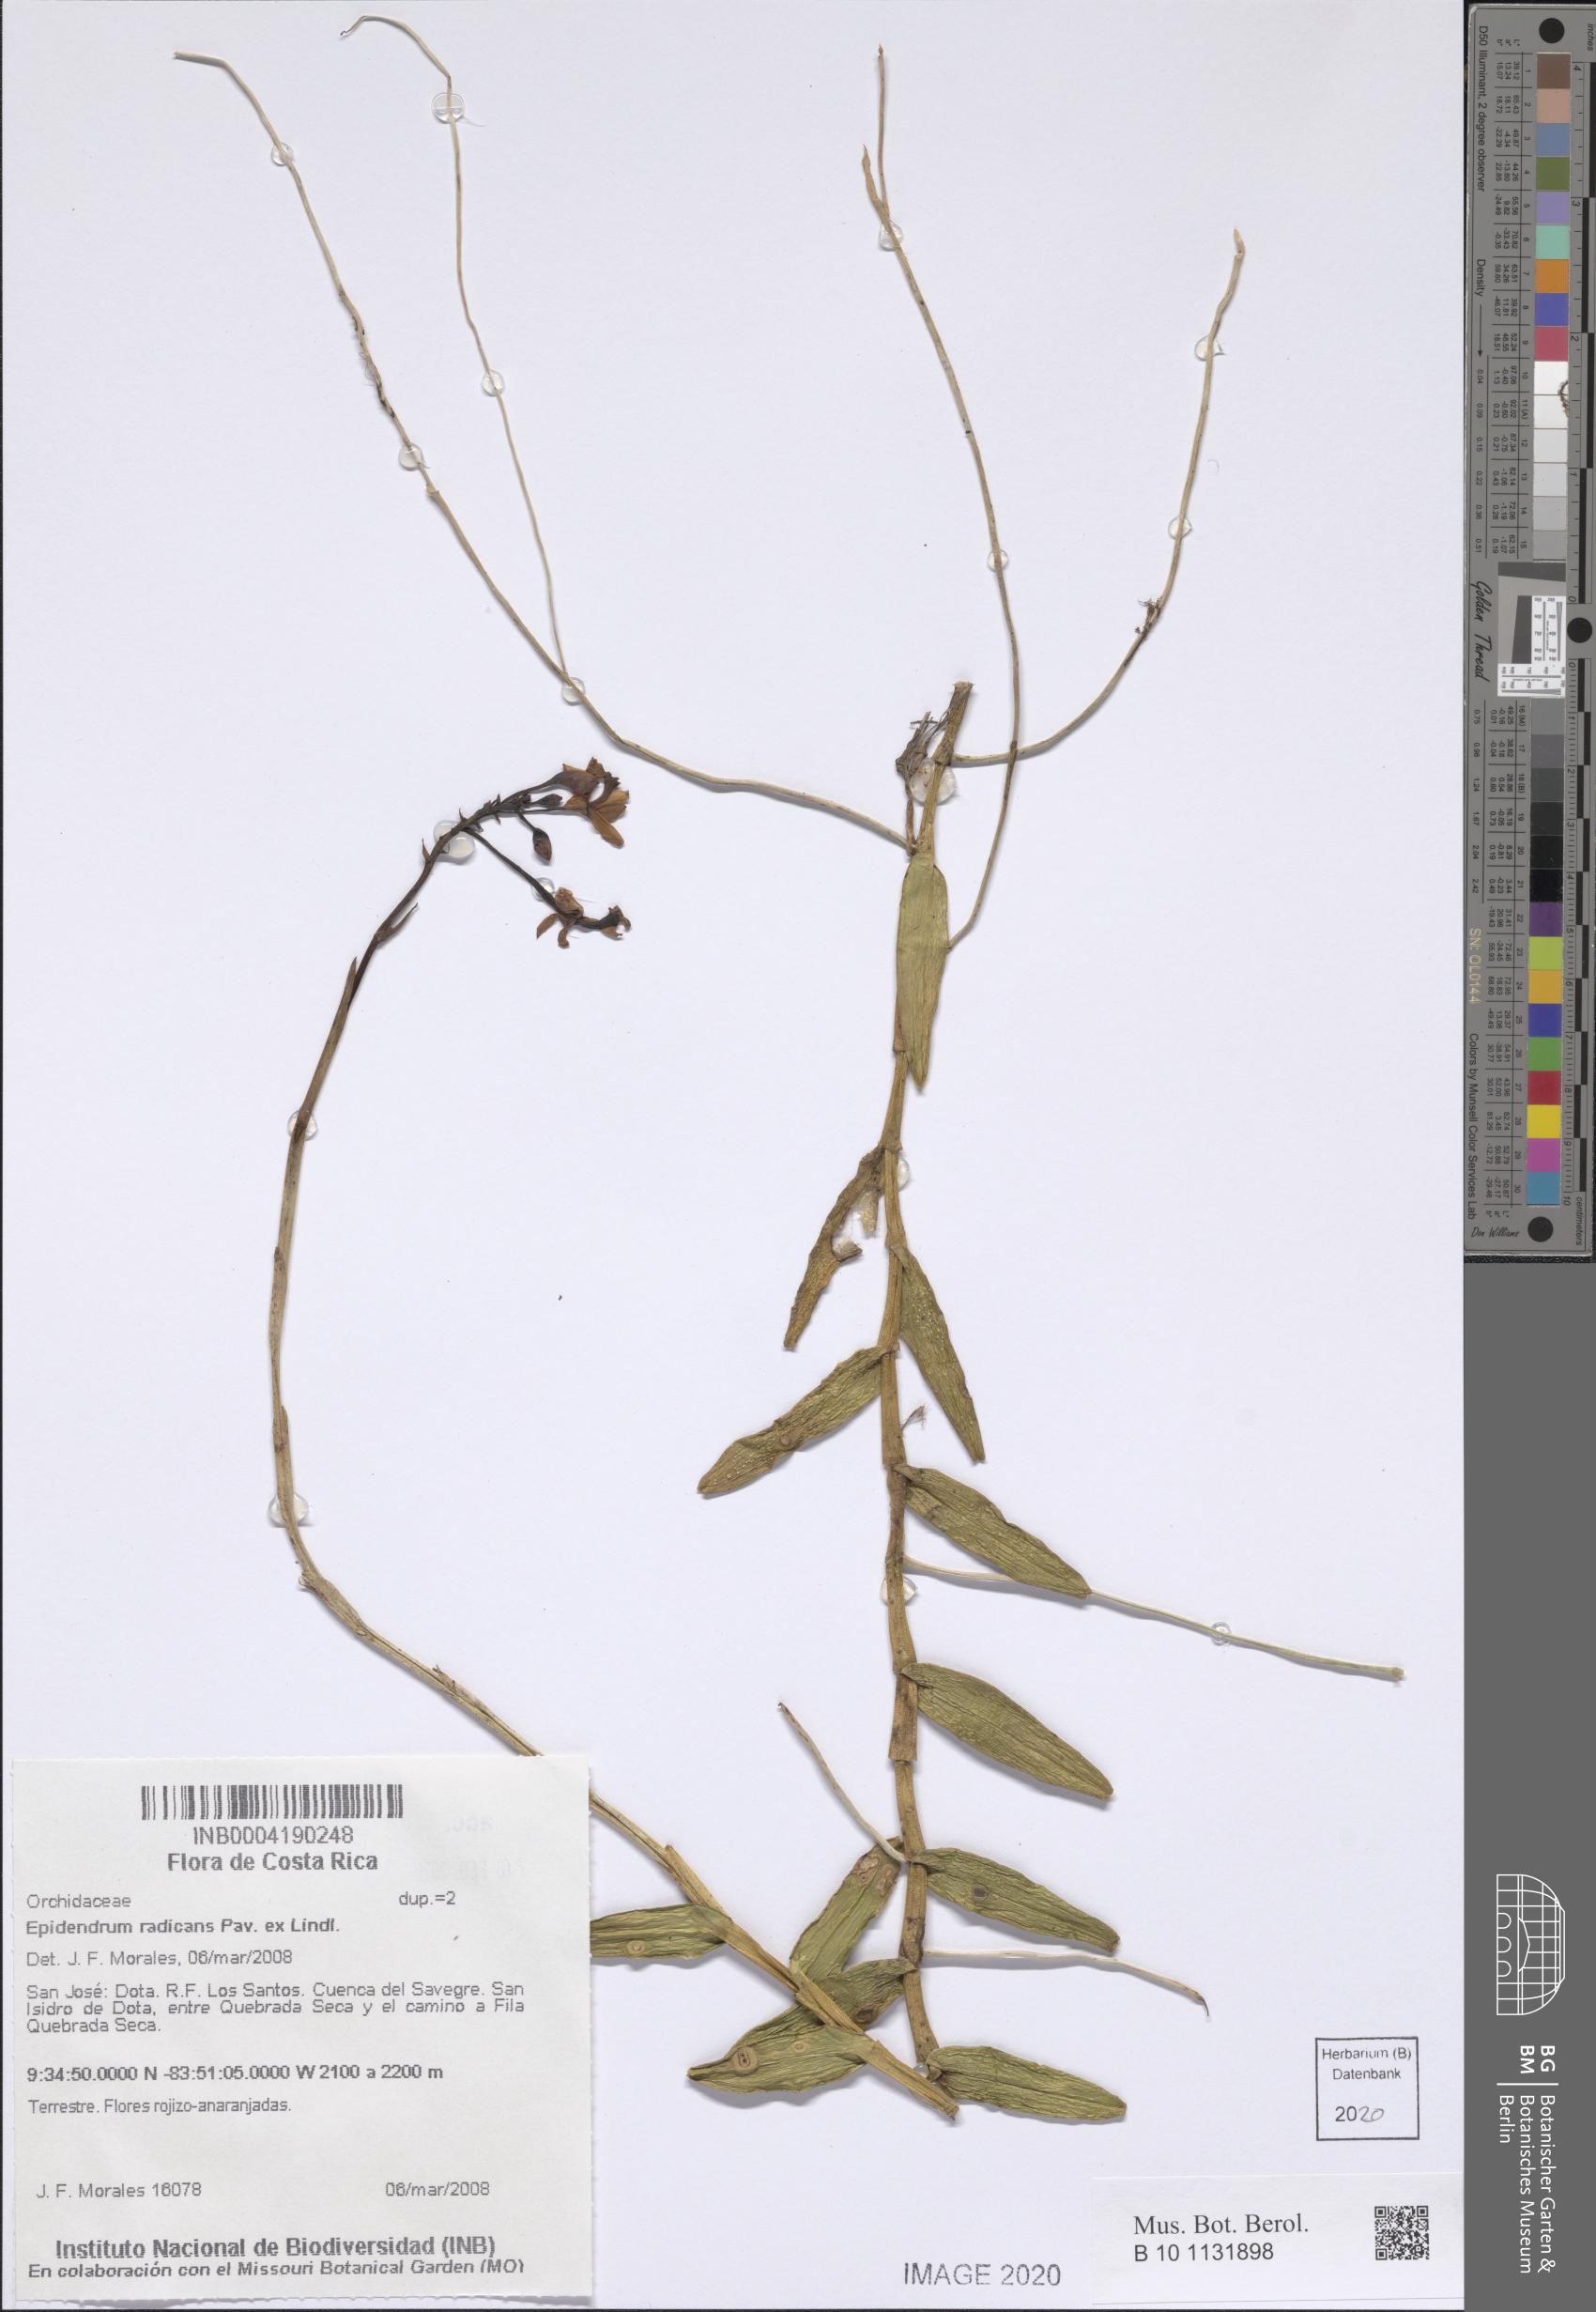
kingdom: Plantae
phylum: Tracheophyta
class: Liliopsida
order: Asparagales
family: Orchidaceae
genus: Epidendrum
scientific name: Epidendrum radicans
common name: Fire star orchid
